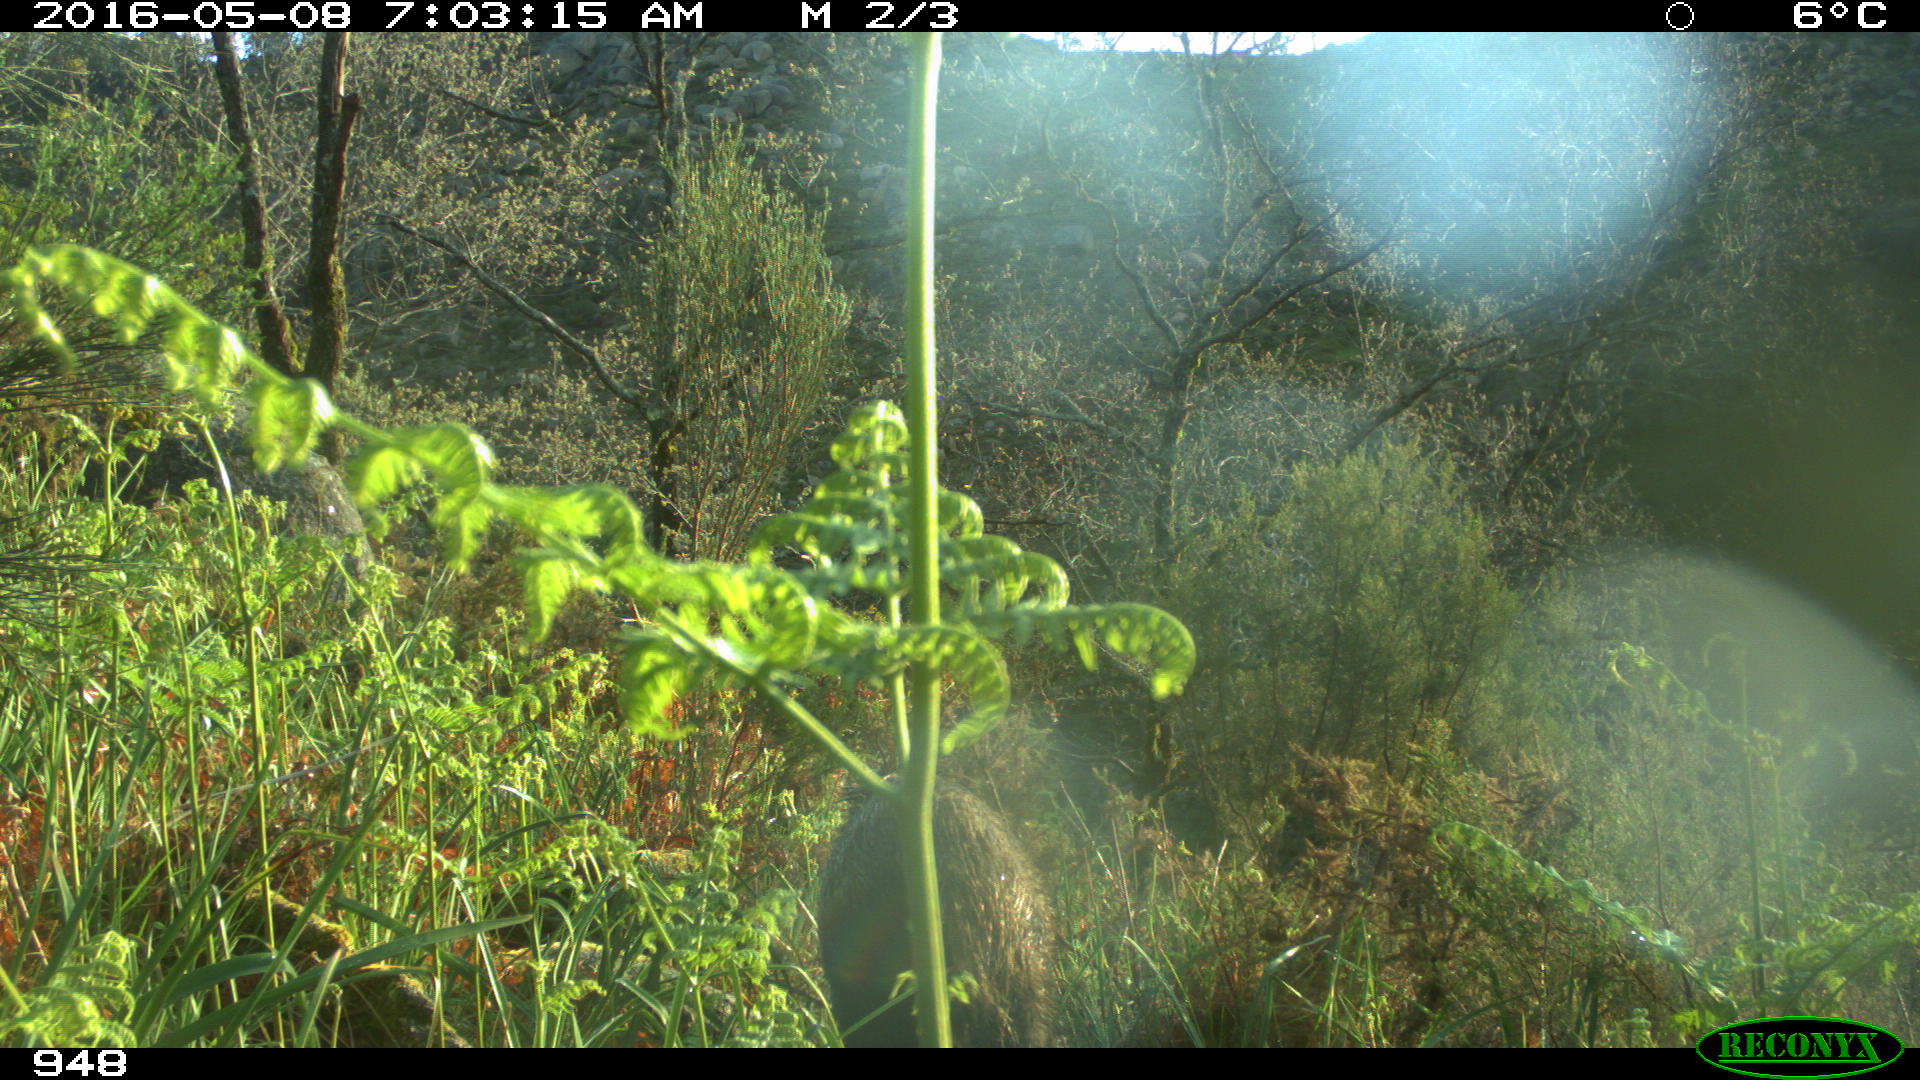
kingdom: Animalia
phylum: Chordata
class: Mammalia
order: Artiodactyla
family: Suidae
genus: Sus
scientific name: Sus scrofa
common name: Wild boar
